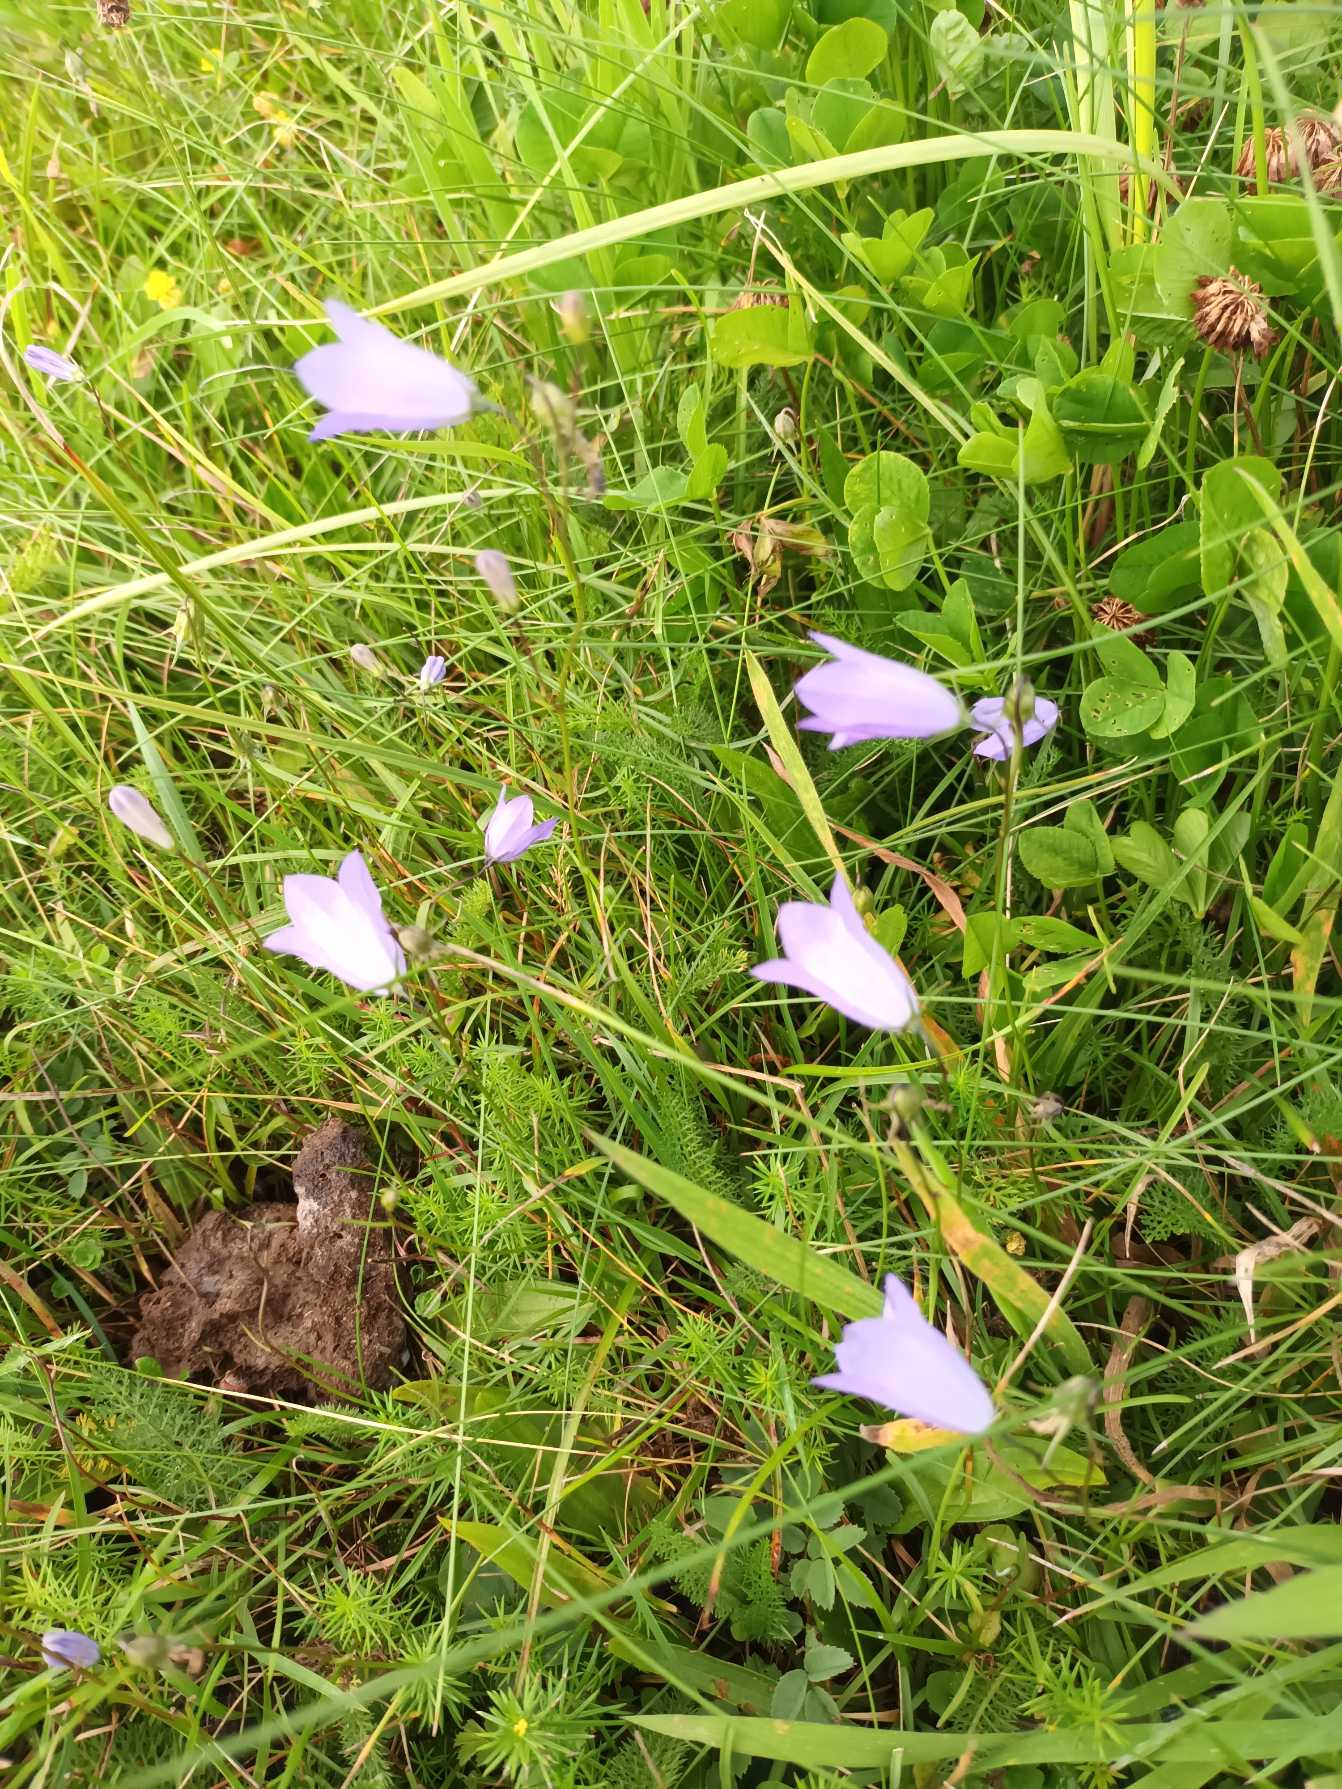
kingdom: Plantae
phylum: Tracheophyta
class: Magnoliopsida
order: Asterales
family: Campanulaceae
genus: Campanula
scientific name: Campanula rotundifolia
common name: Liden klokke
